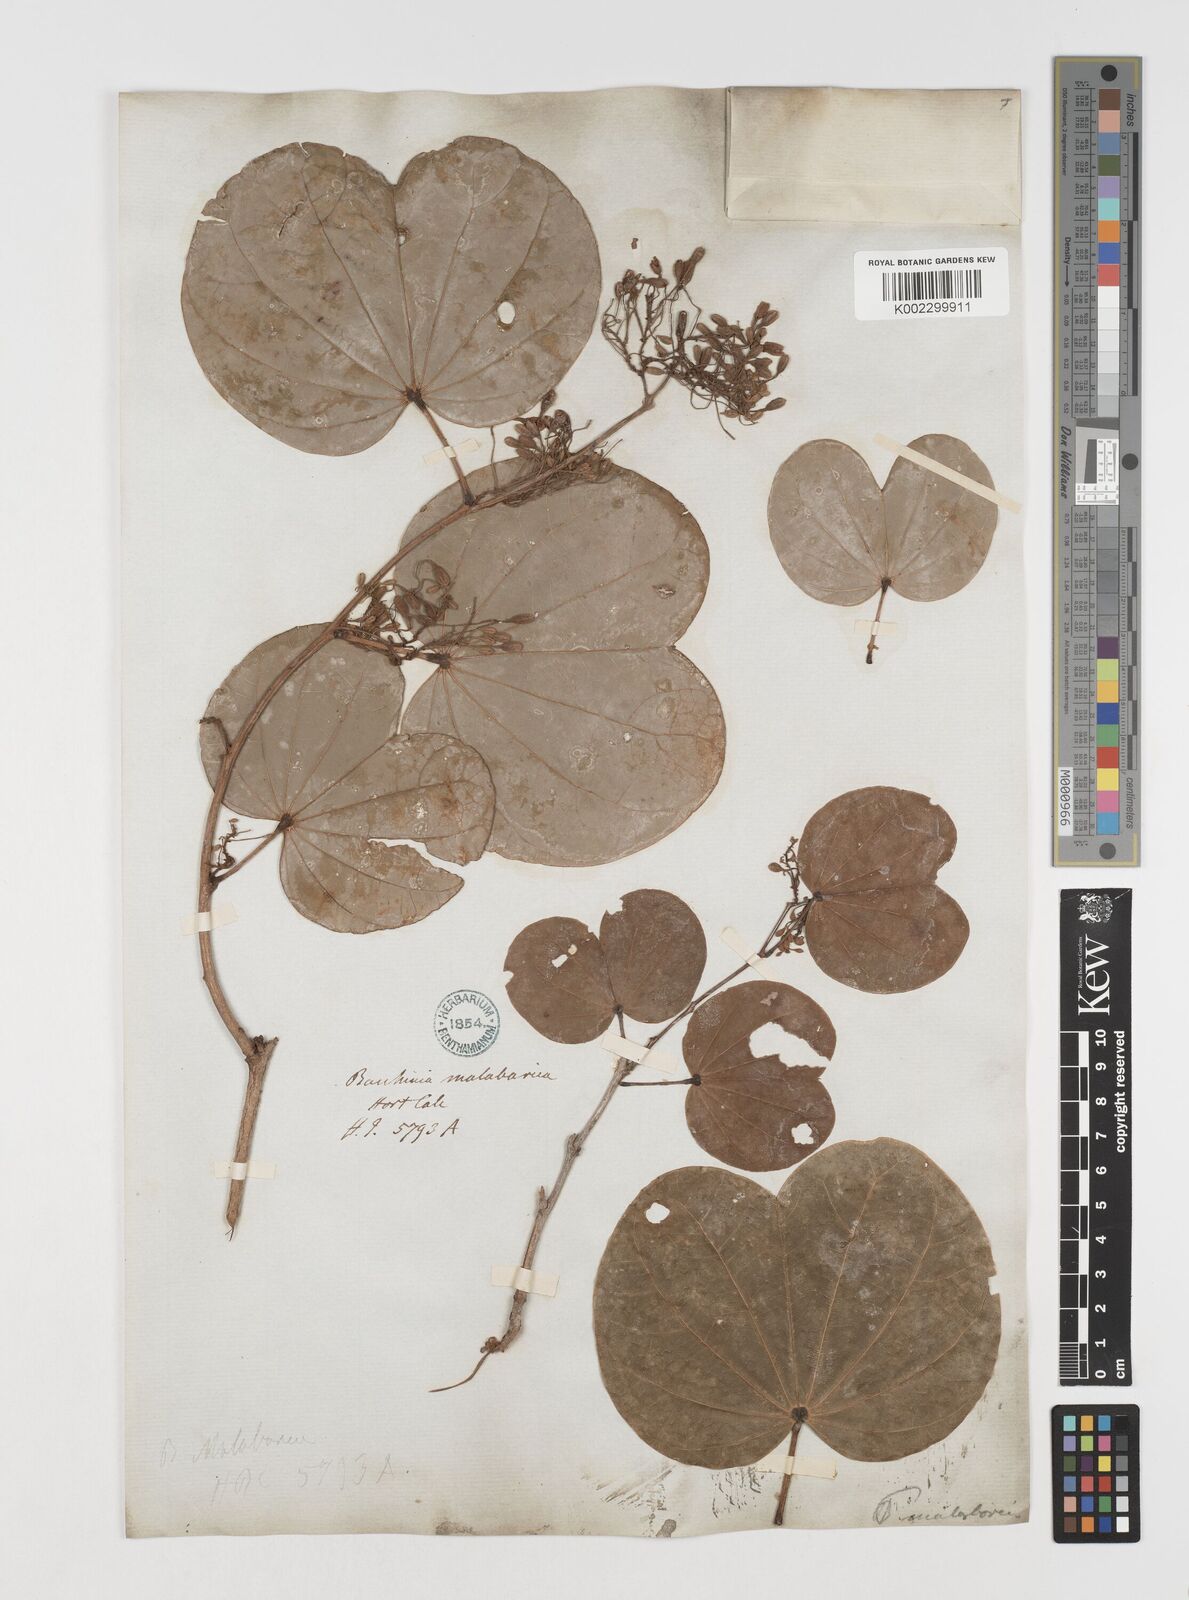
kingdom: Plantae
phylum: Tracheophyta
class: Magnoliopsida
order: Fabales
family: Fabaceae
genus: Piliostigma
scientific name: Piliostigma malabaricum
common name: Malabar bauhinia
